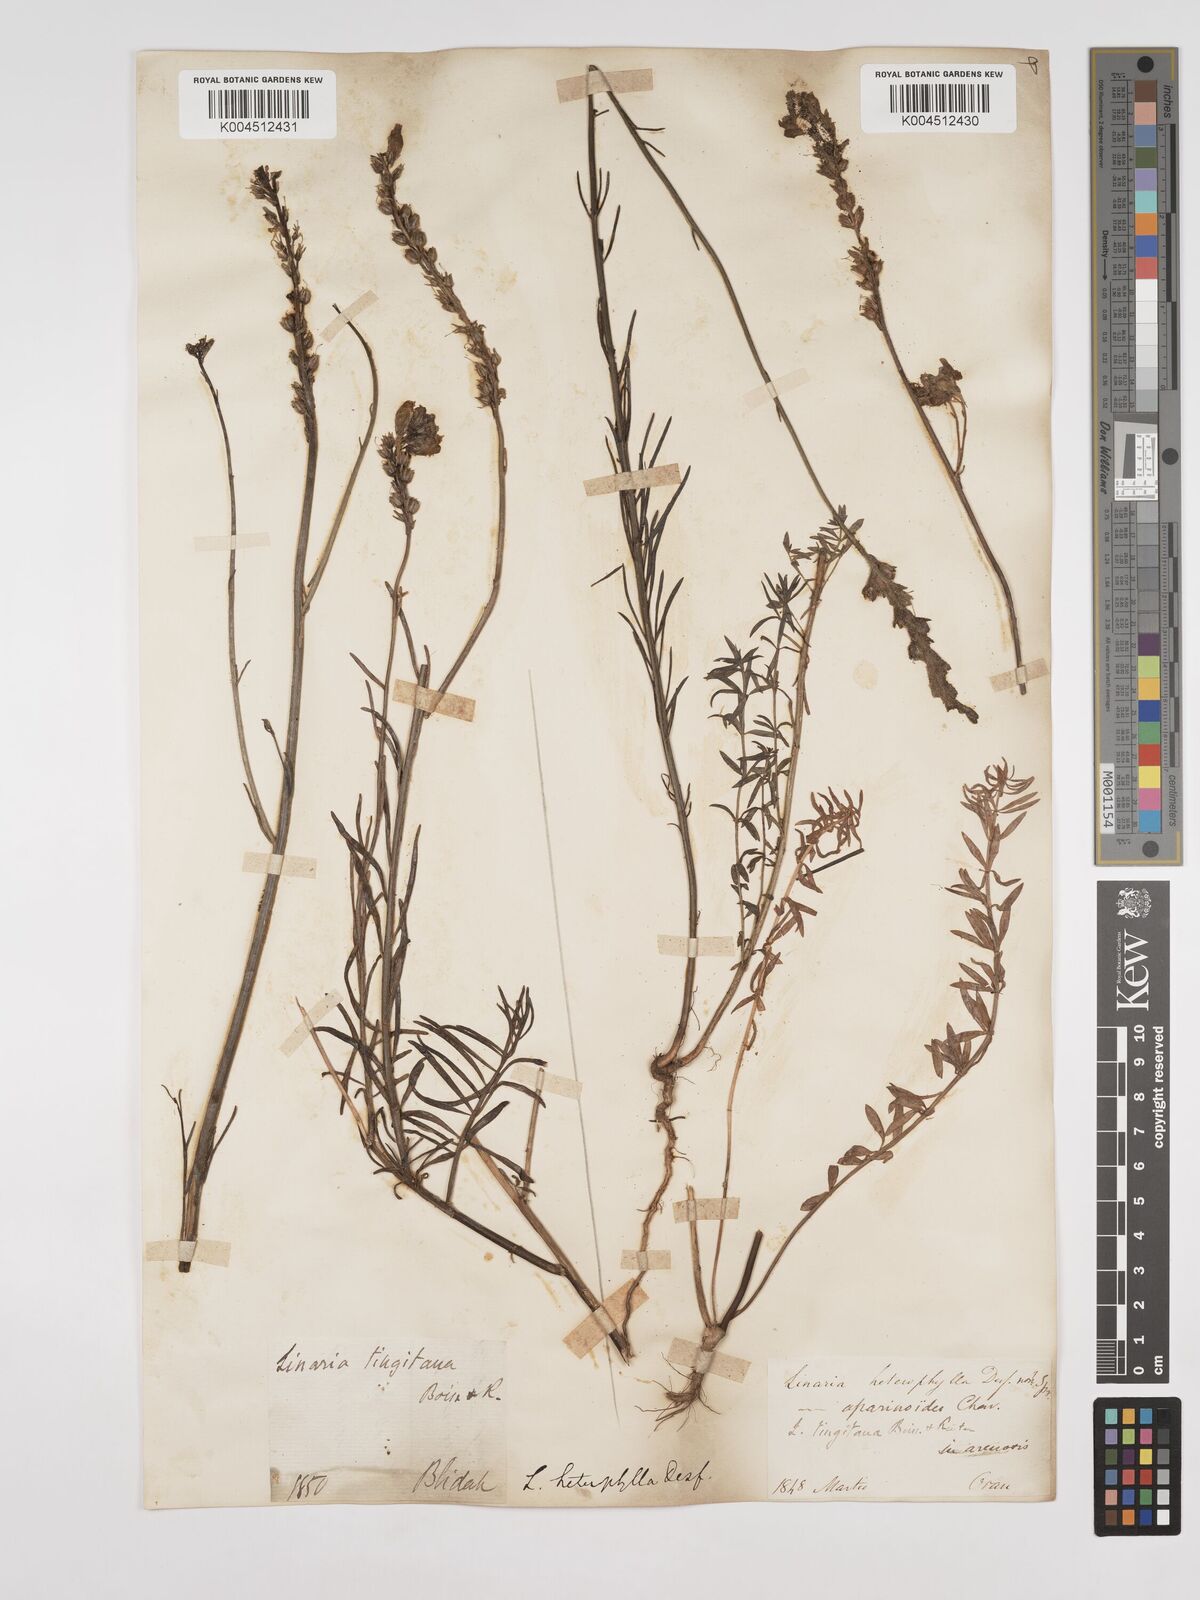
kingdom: Plantae
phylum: Tracheophyta
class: Magnoliopsida
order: Lamiales
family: Plantaginaceae
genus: Linaria
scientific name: Linaria multicaulis
